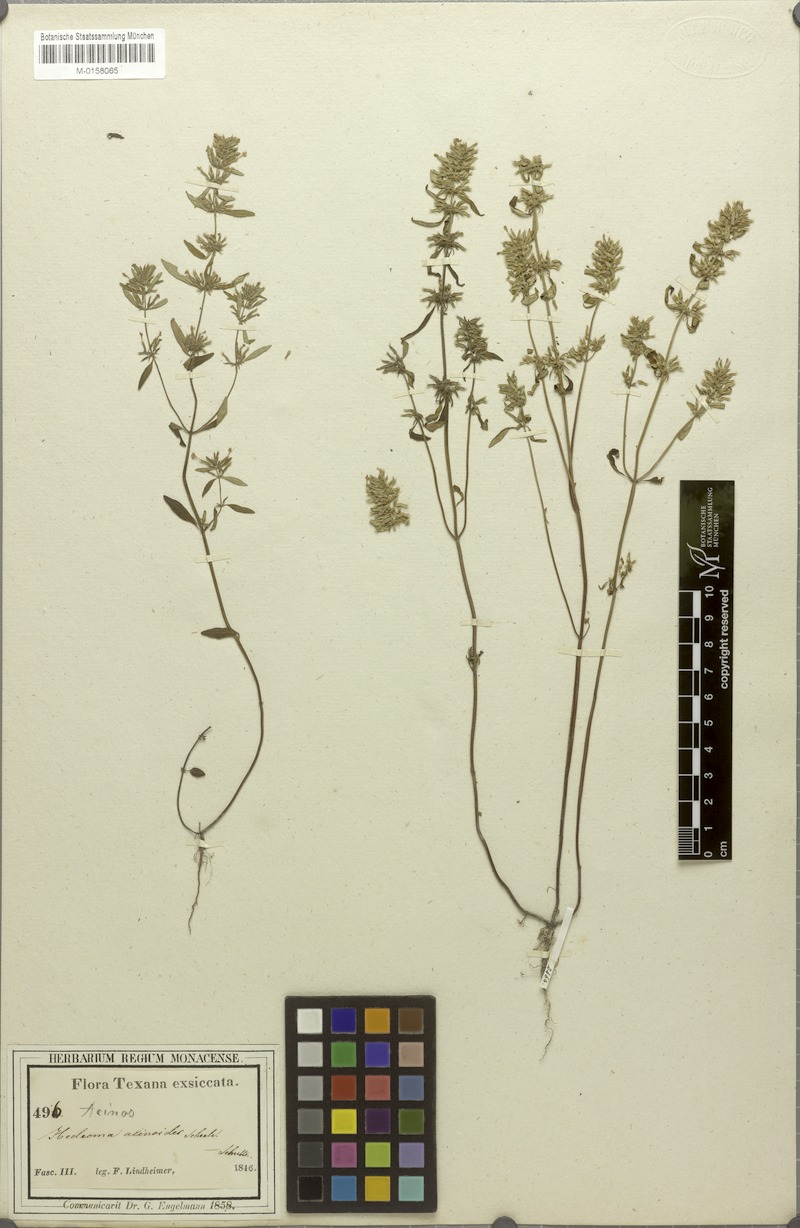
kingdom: Plantae
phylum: Tracheophyta
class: Magnoliopsida
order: Lamiales
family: Lamiaceae
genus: Hedeoma
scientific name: Hedeoma acinoides
